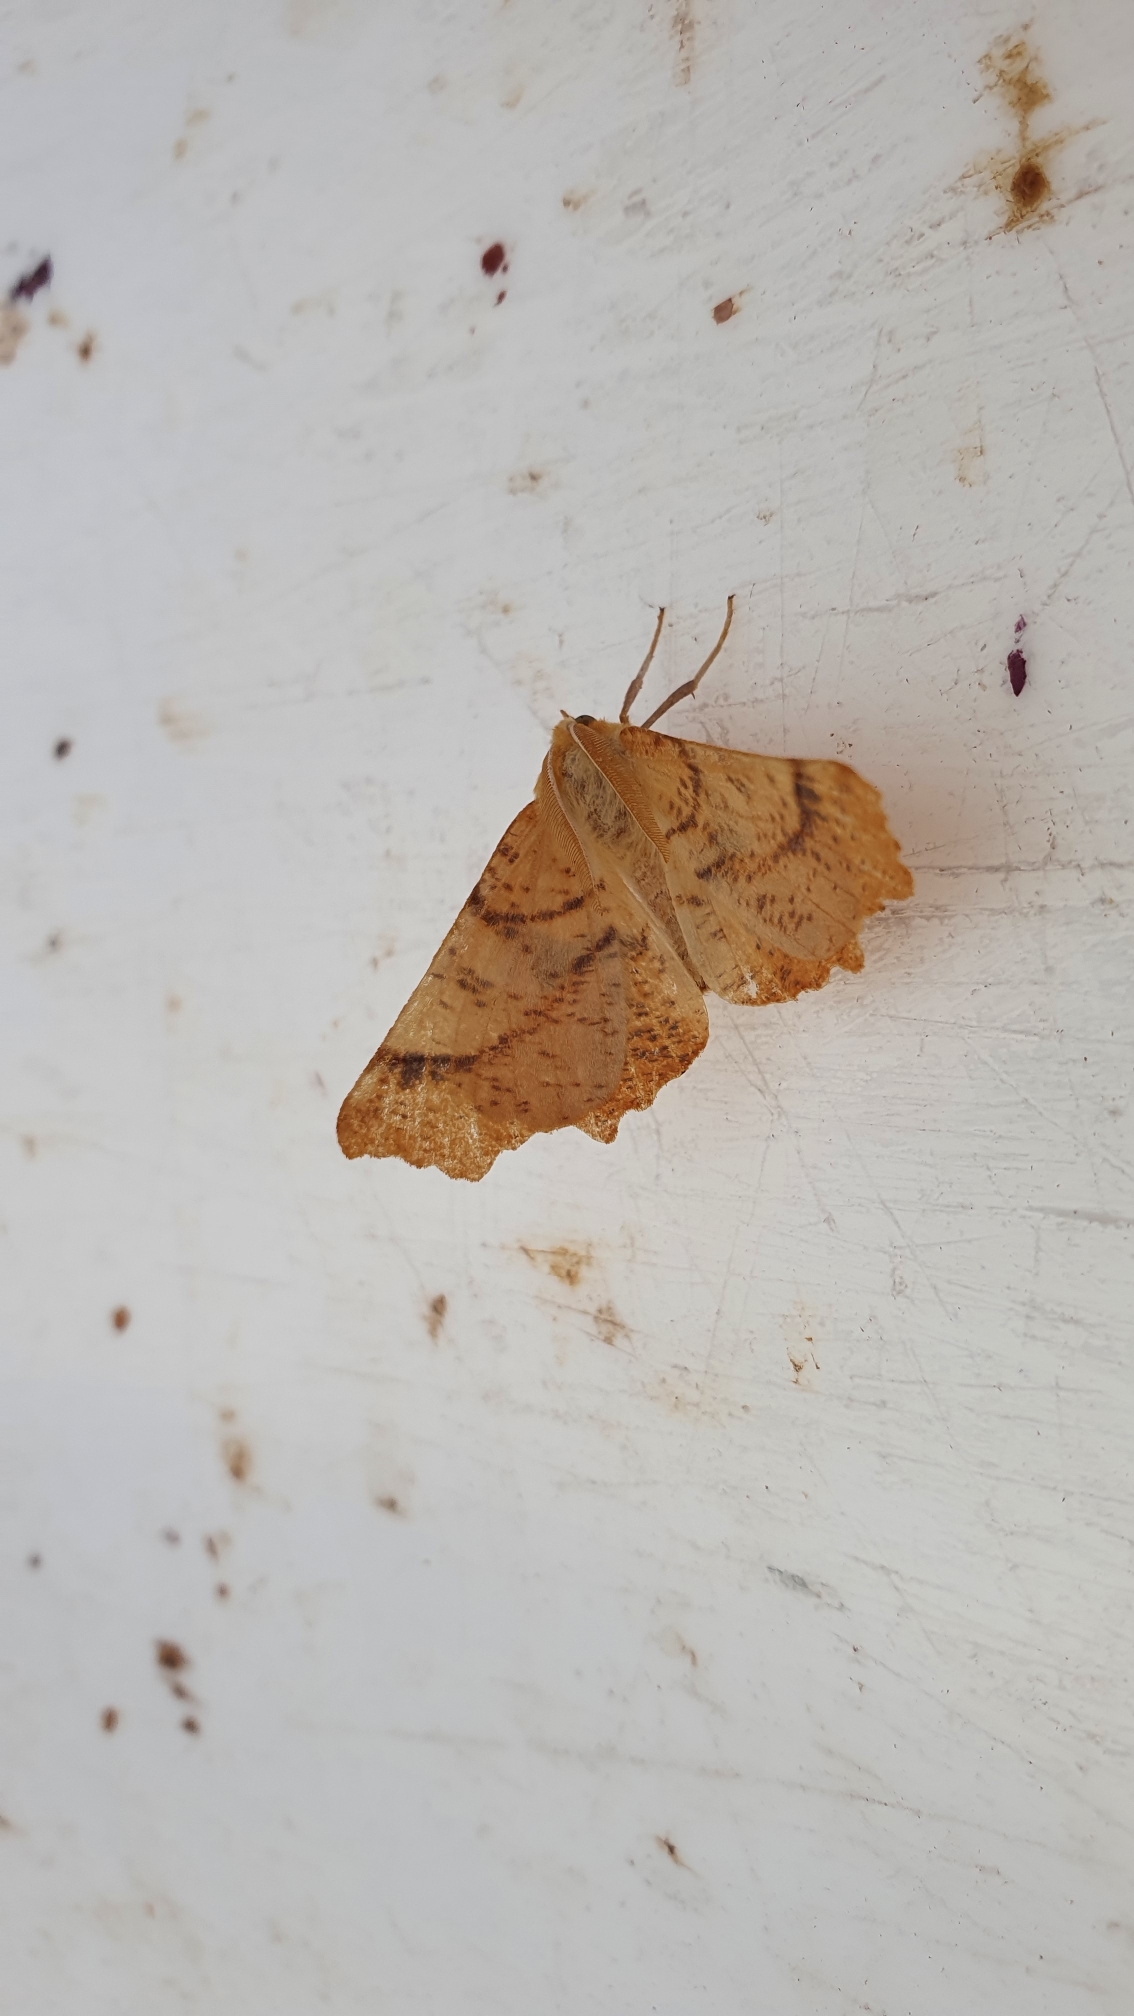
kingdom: Animalia
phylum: Arthropoda
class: Insecta
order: Lepidoptera
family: Geometridae
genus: Ennomos
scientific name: Ennomos autumnaria
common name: Stor tandmåler
